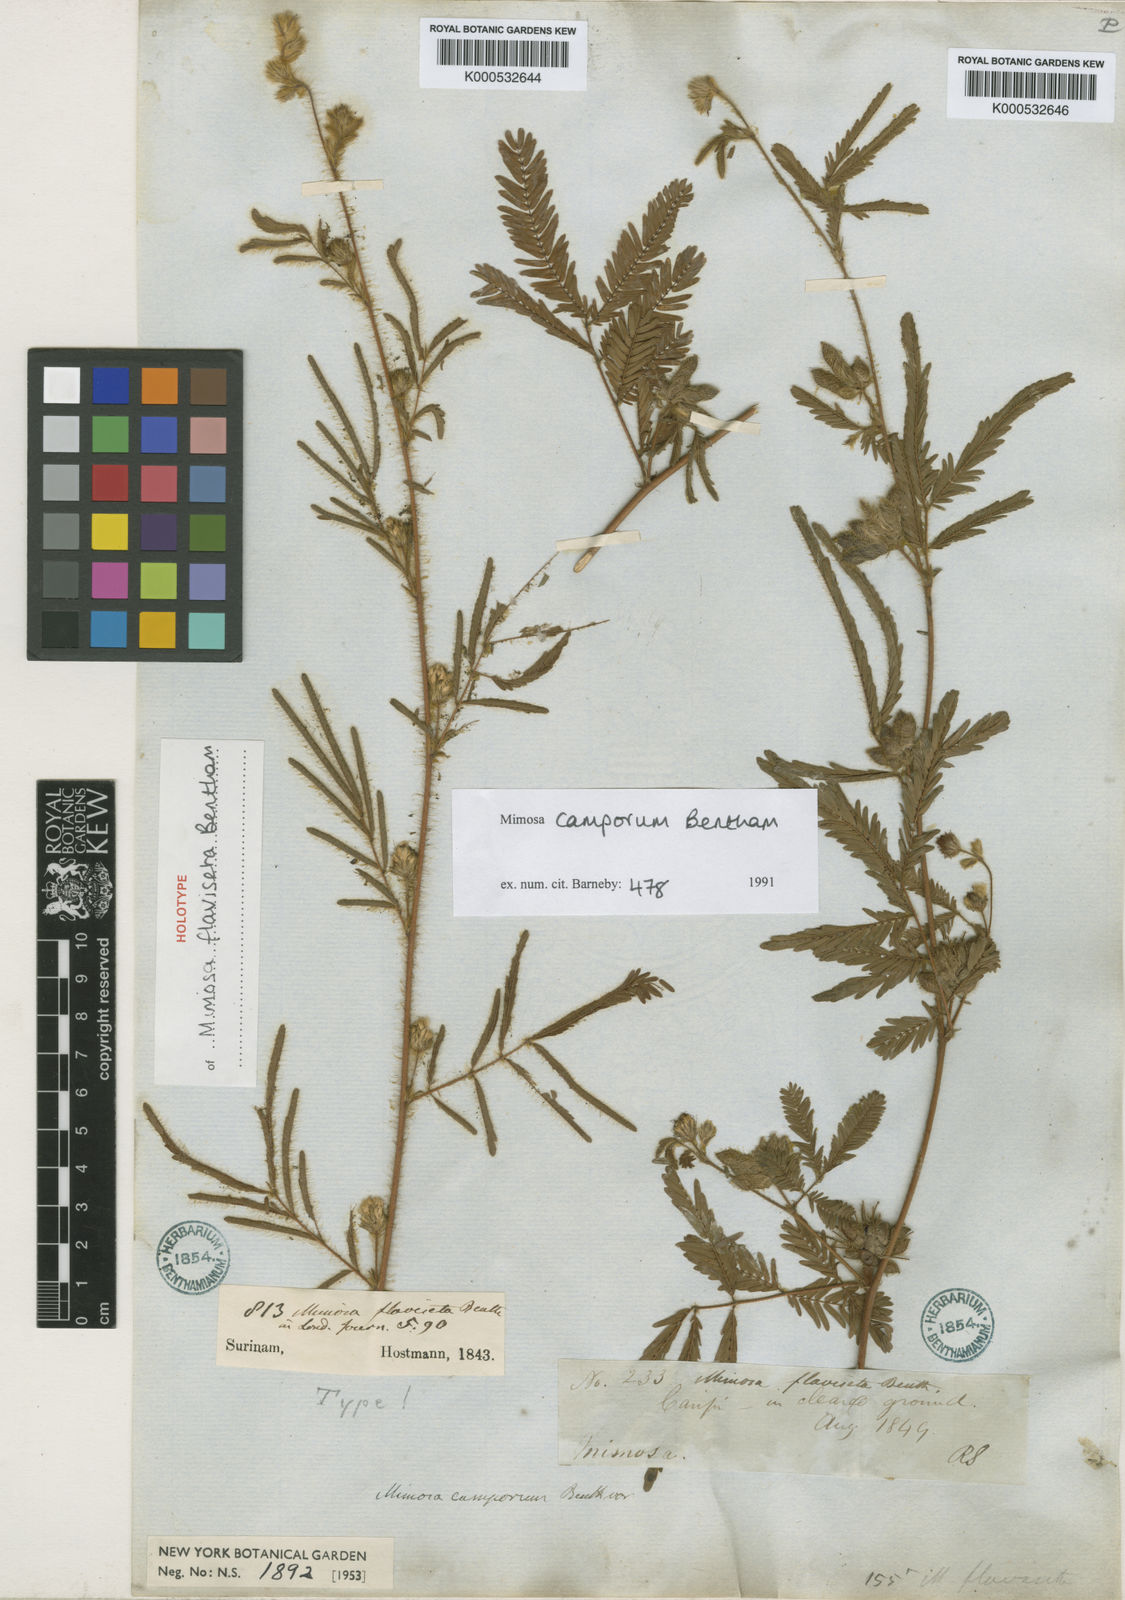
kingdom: Plantae
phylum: Tracheophyta
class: Magnoliopsida
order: Fabales
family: Fabaceae
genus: Mimosa
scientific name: Mimosa camporum
